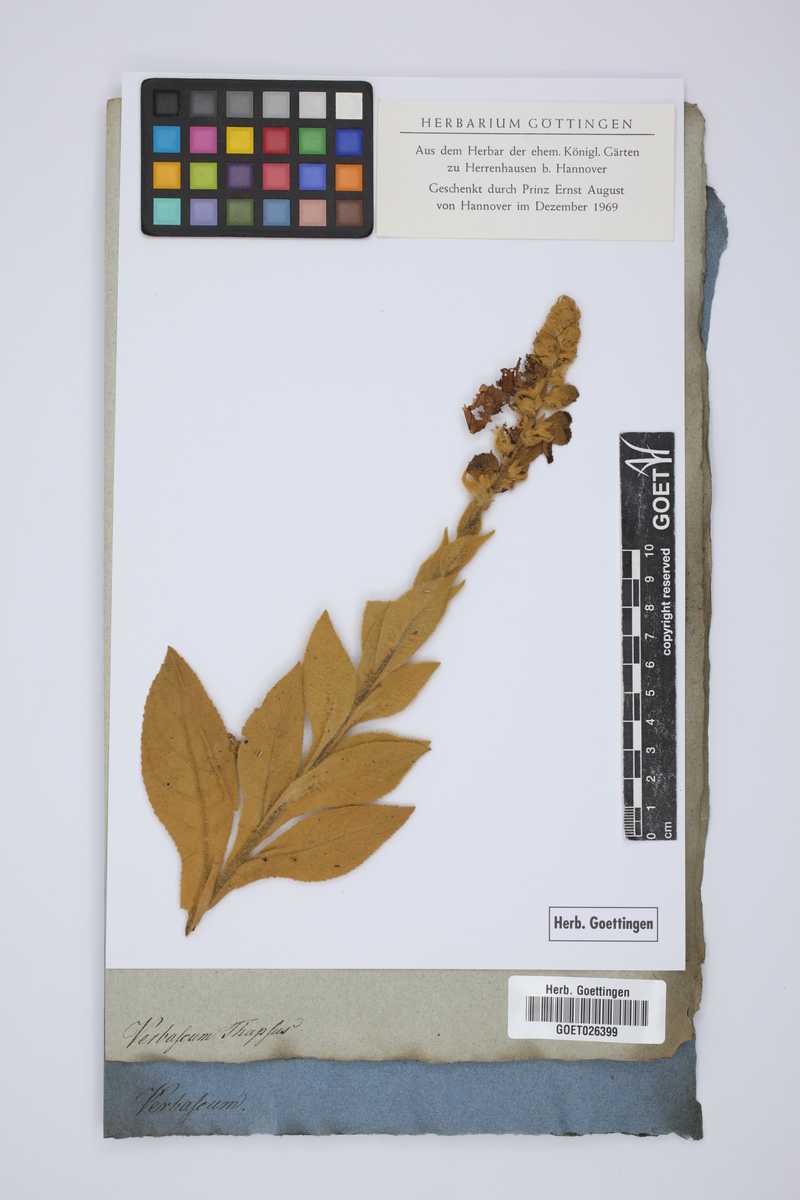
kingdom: Plantae
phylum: Tracheophyta
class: Magnoliopsida
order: Lamiales
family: Scrophulariaceae
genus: Verbascum
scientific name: Verbascum thapsus
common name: Common mullein
